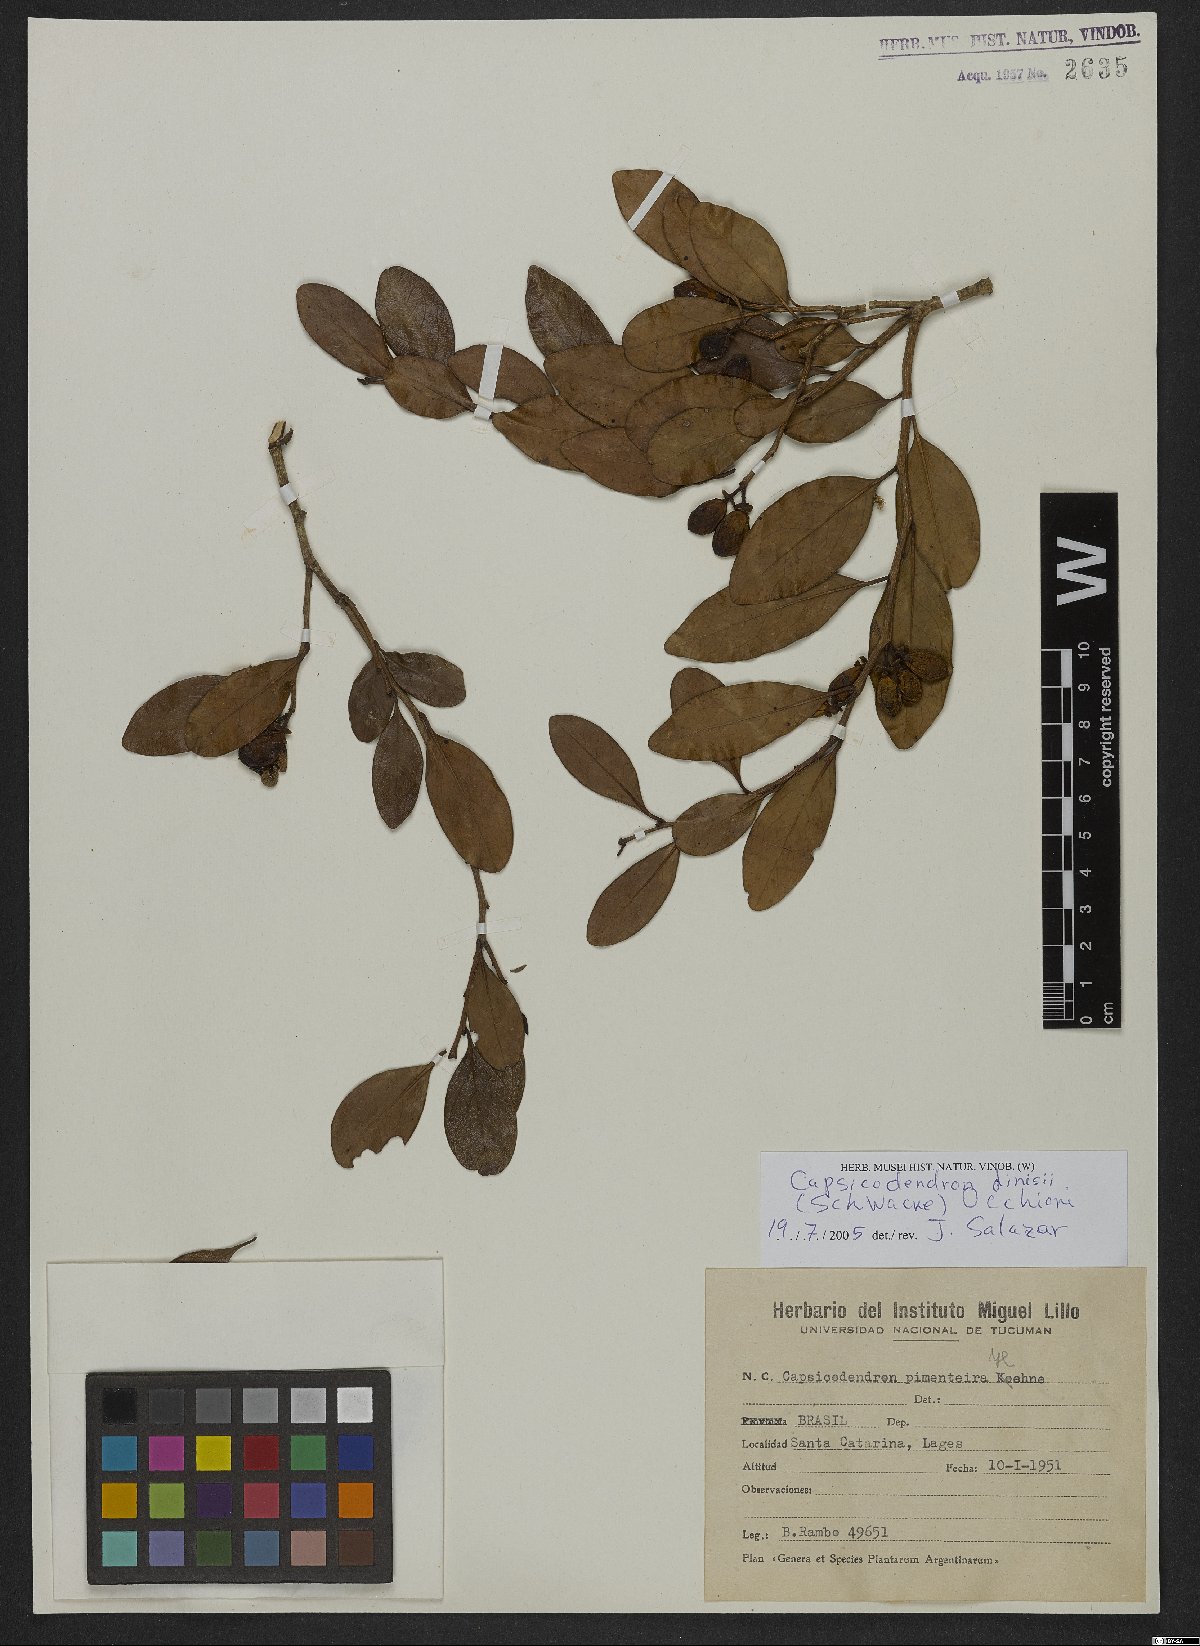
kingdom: Plantae
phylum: Tracheophyta
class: Magnoliopsida
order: Canellales
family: Canellaceae
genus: Cinnamodendron
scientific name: Cinnamodendron dinisii
